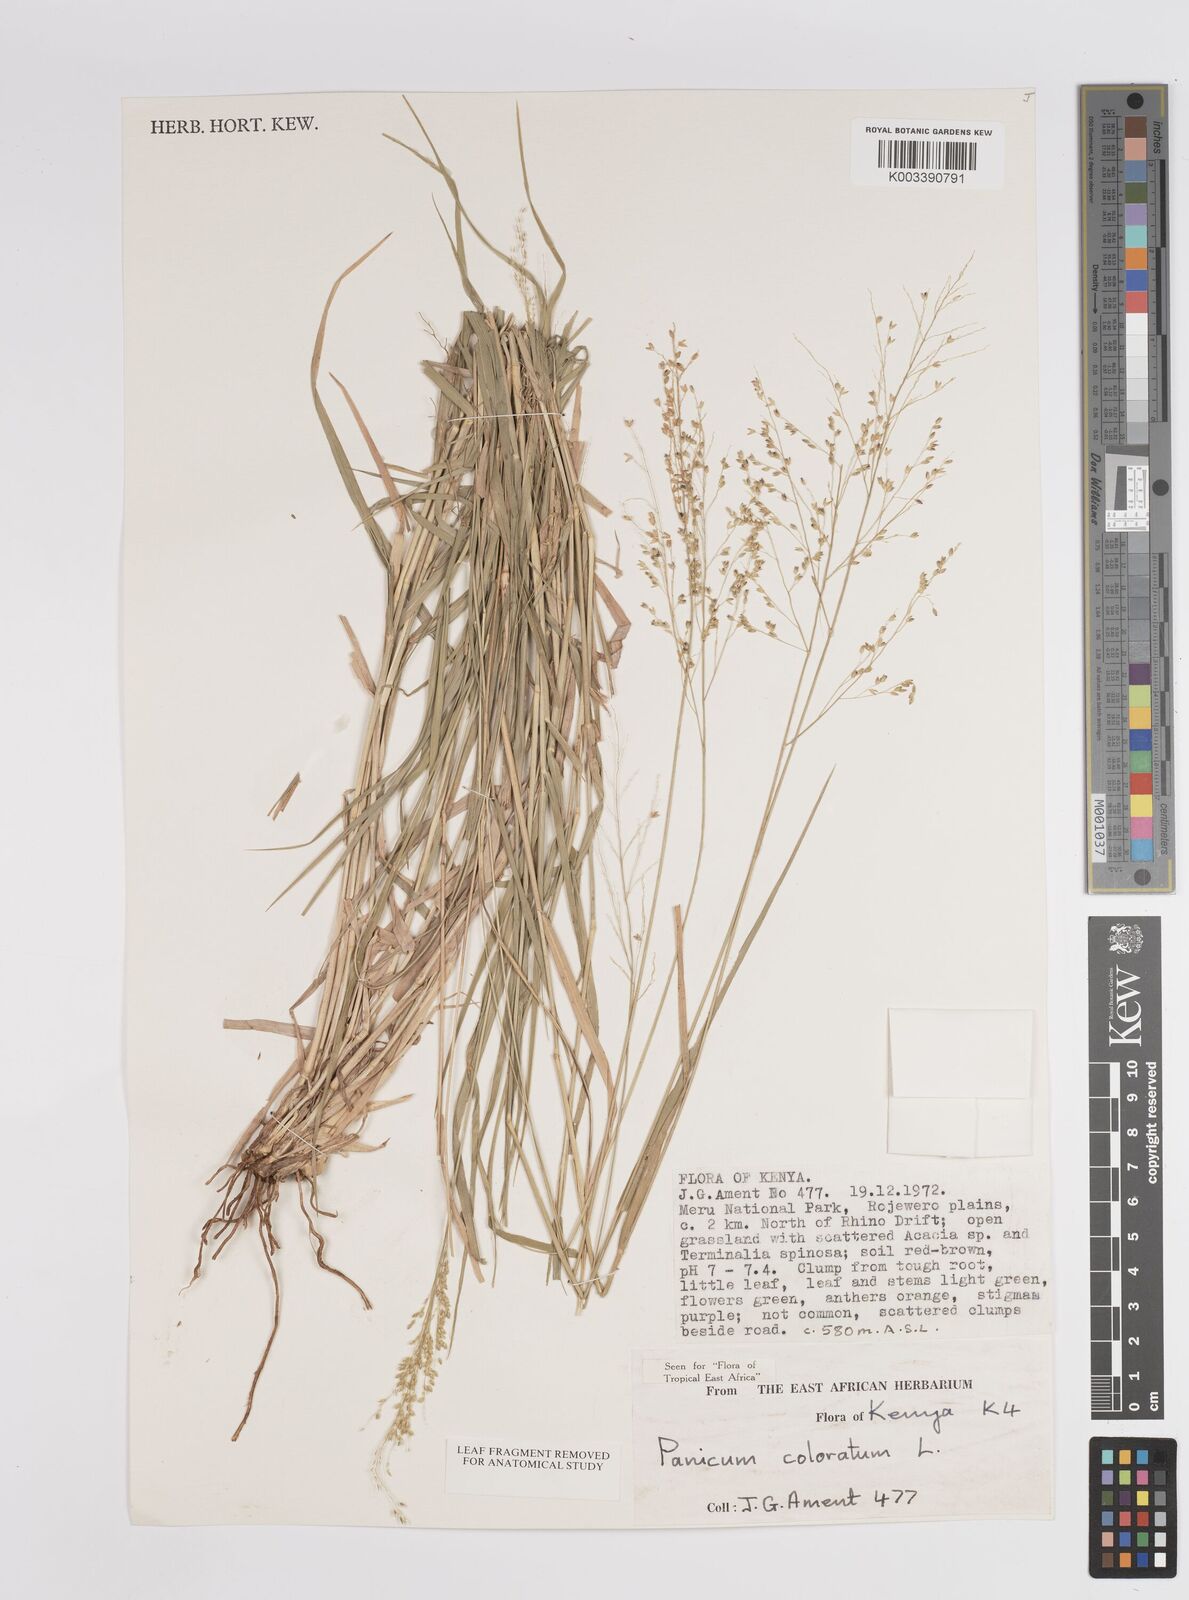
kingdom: Plantae
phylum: Tracheophyta
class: Liliopsida
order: Poales
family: Poaceae
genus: Panicum
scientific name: Panicum coloratum
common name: Kleingrass
